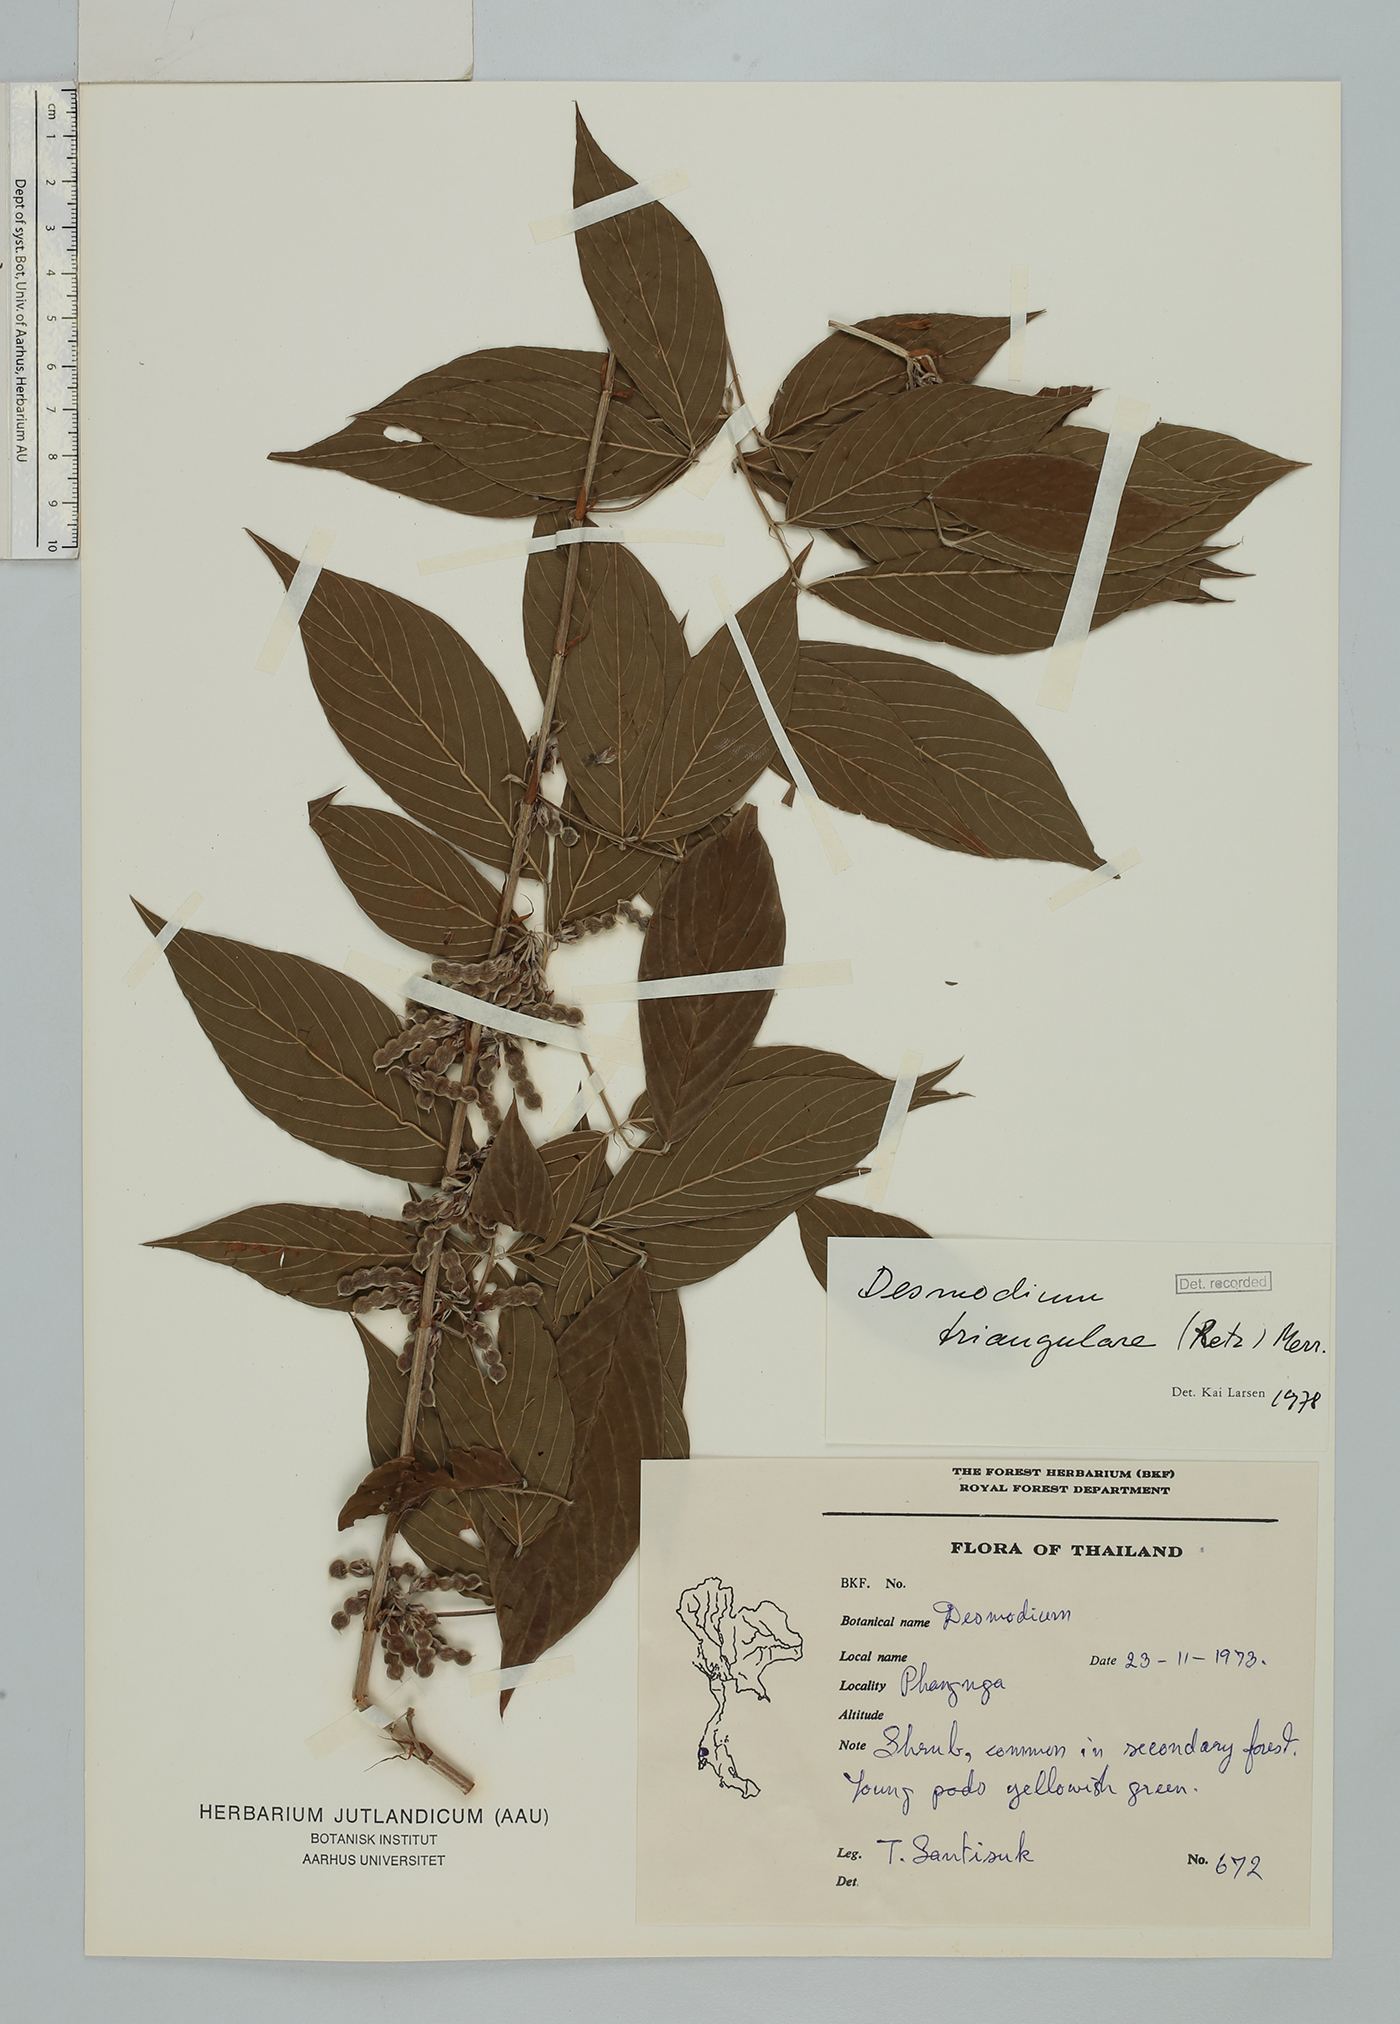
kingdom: Plantae
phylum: Tracheophyta
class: Magnoliopsida
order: Fabales
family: Fabaceae
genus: Dendrolobium
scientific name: Dendrolobium triangulare
